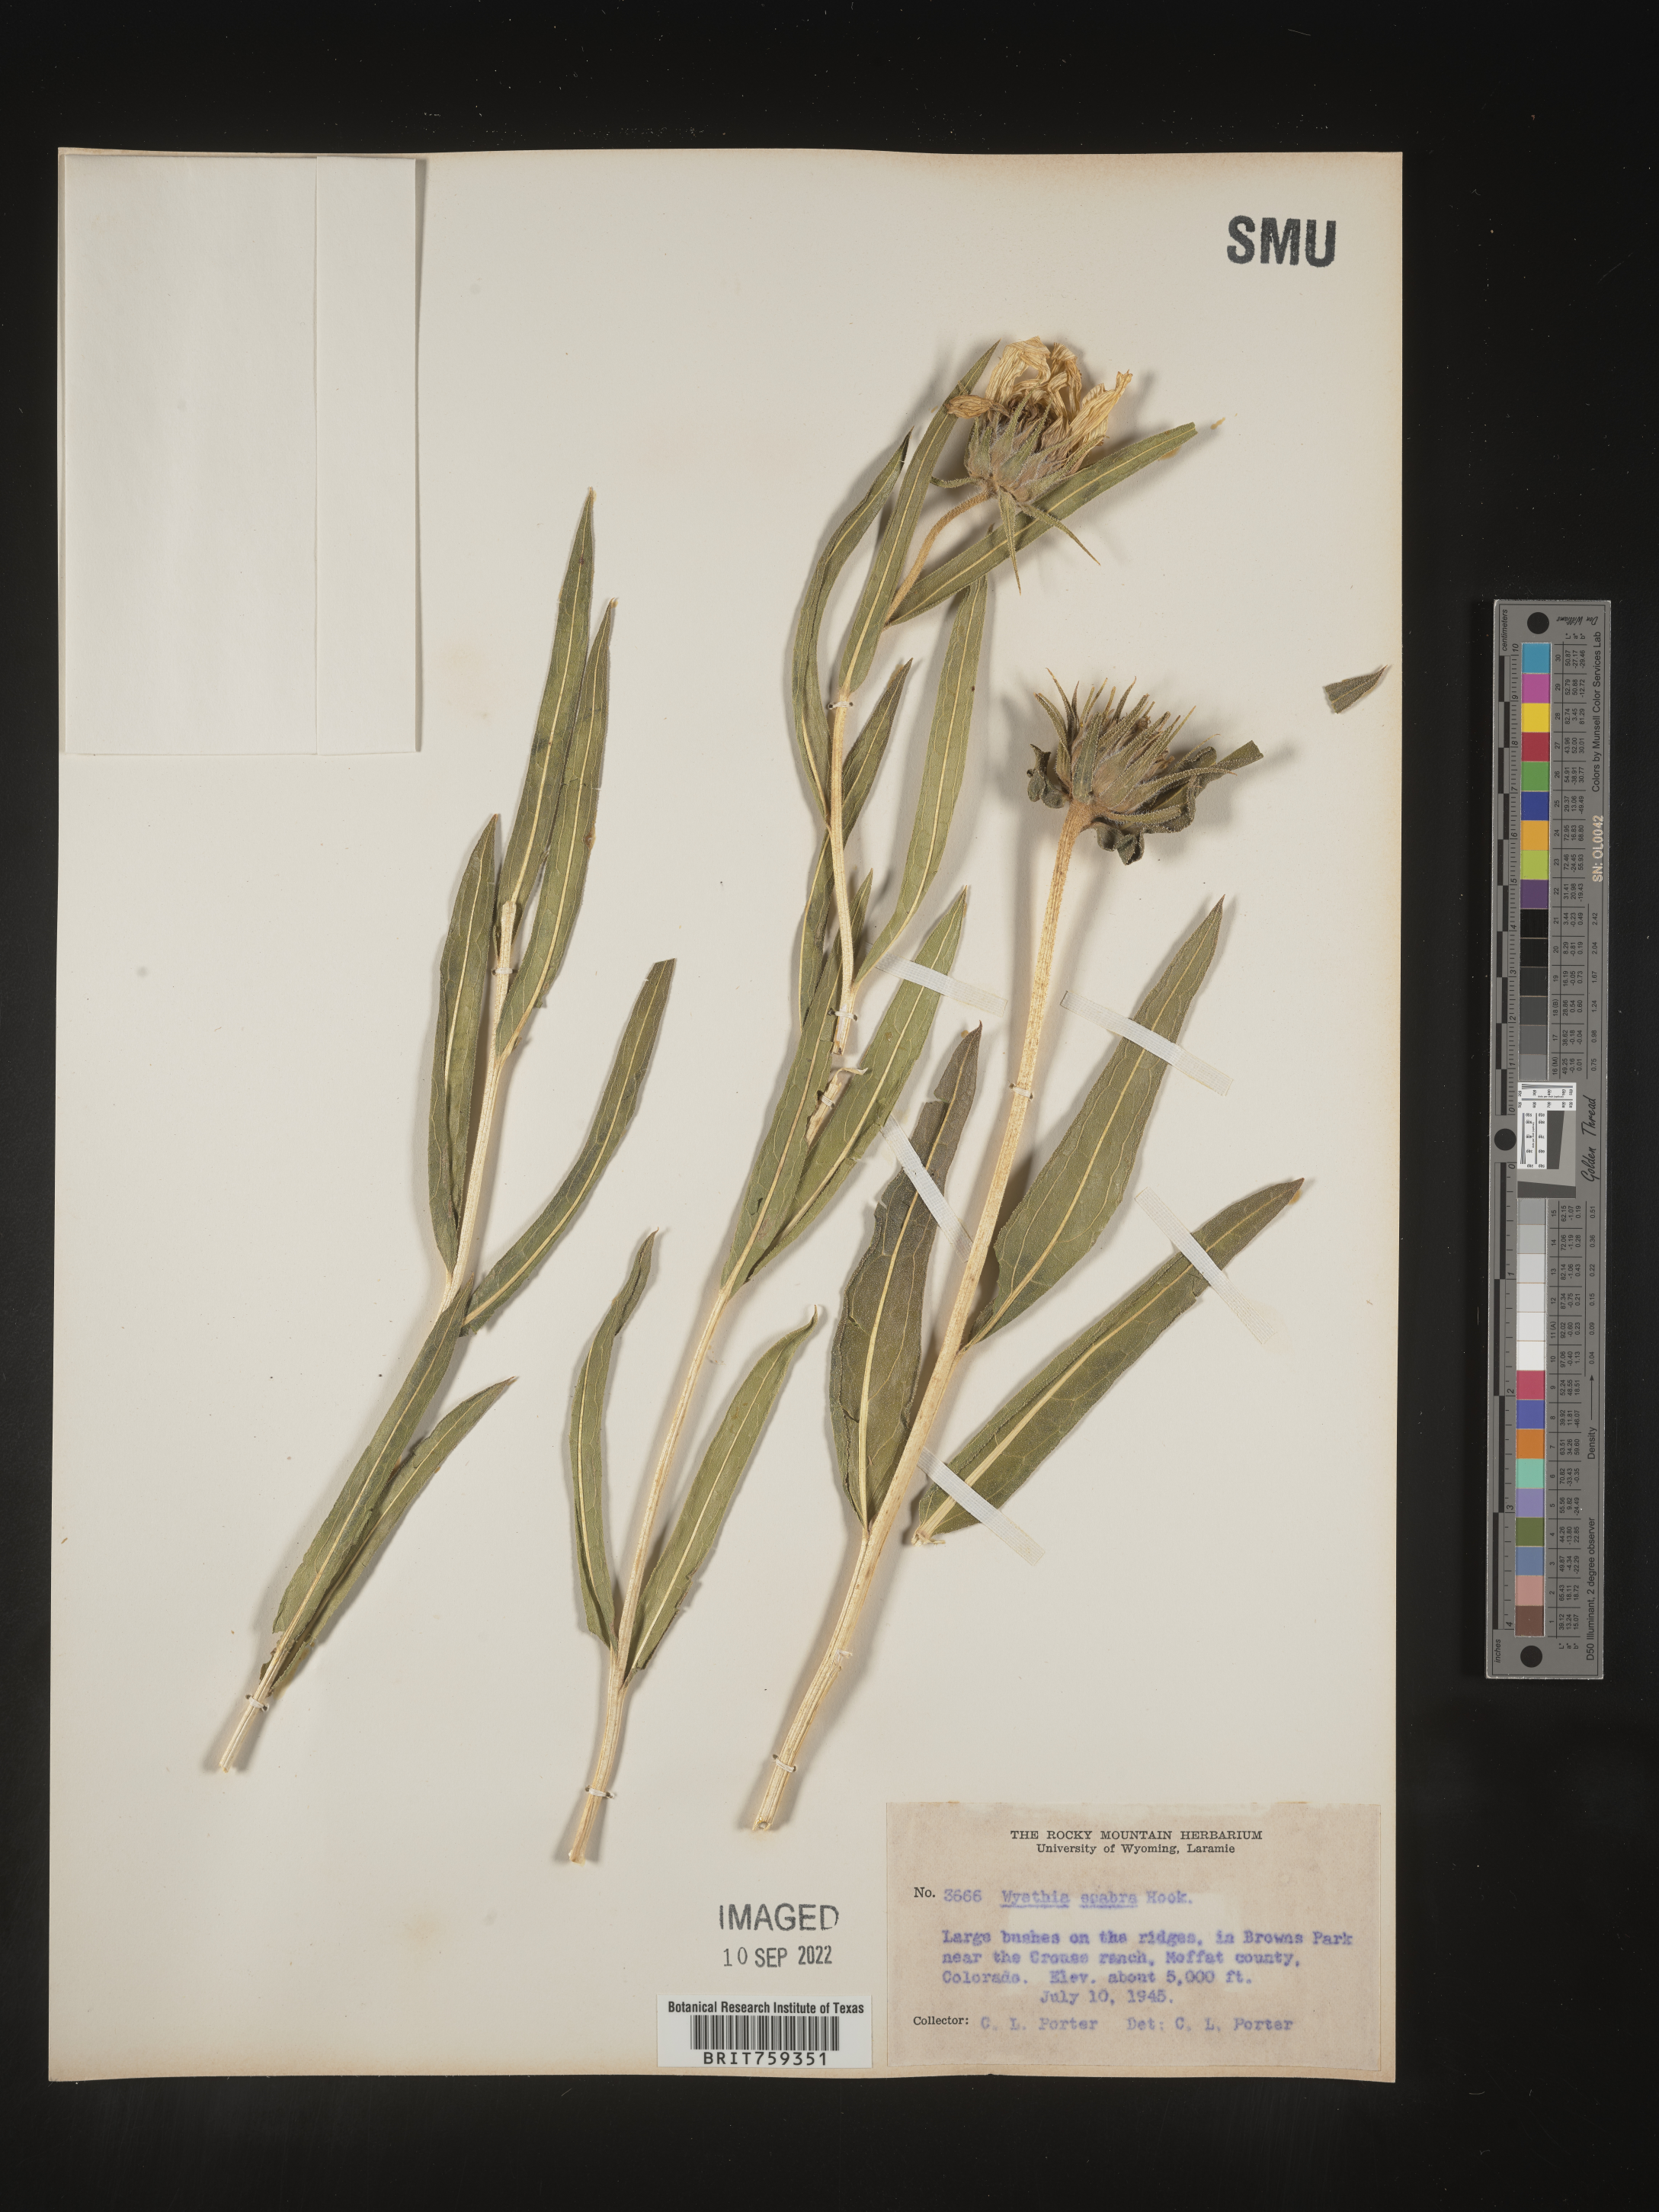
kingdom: Plantae
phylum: Tracheophyta
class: Magnoliopsida
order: Asterales
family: Asteraceae
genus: Scabrethia
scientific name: Scabrethia scabra
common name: Rough mules's-ears
